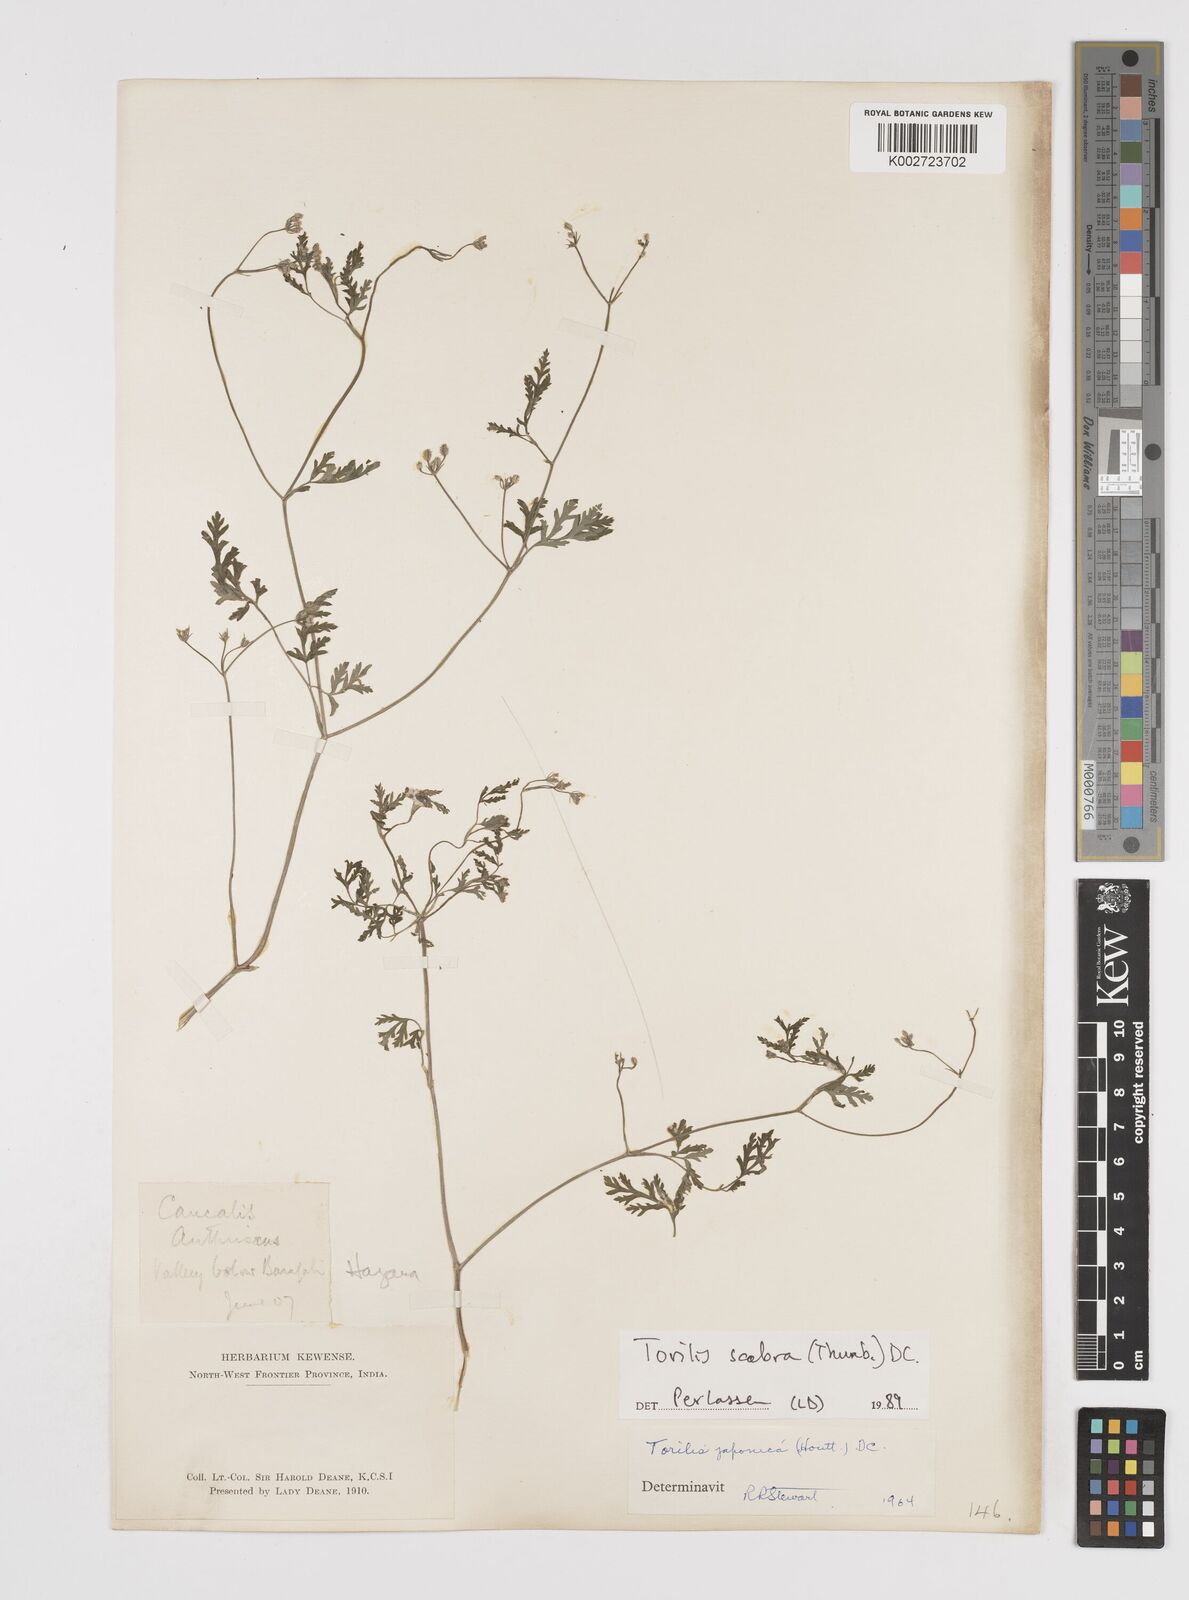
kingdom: Plantae
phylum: Tracheophyta
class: Magnoliopsida
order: Apiales
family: Apiaceae
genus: Torilis
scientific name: Torilis scabra
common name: Rough hedgeparsley
